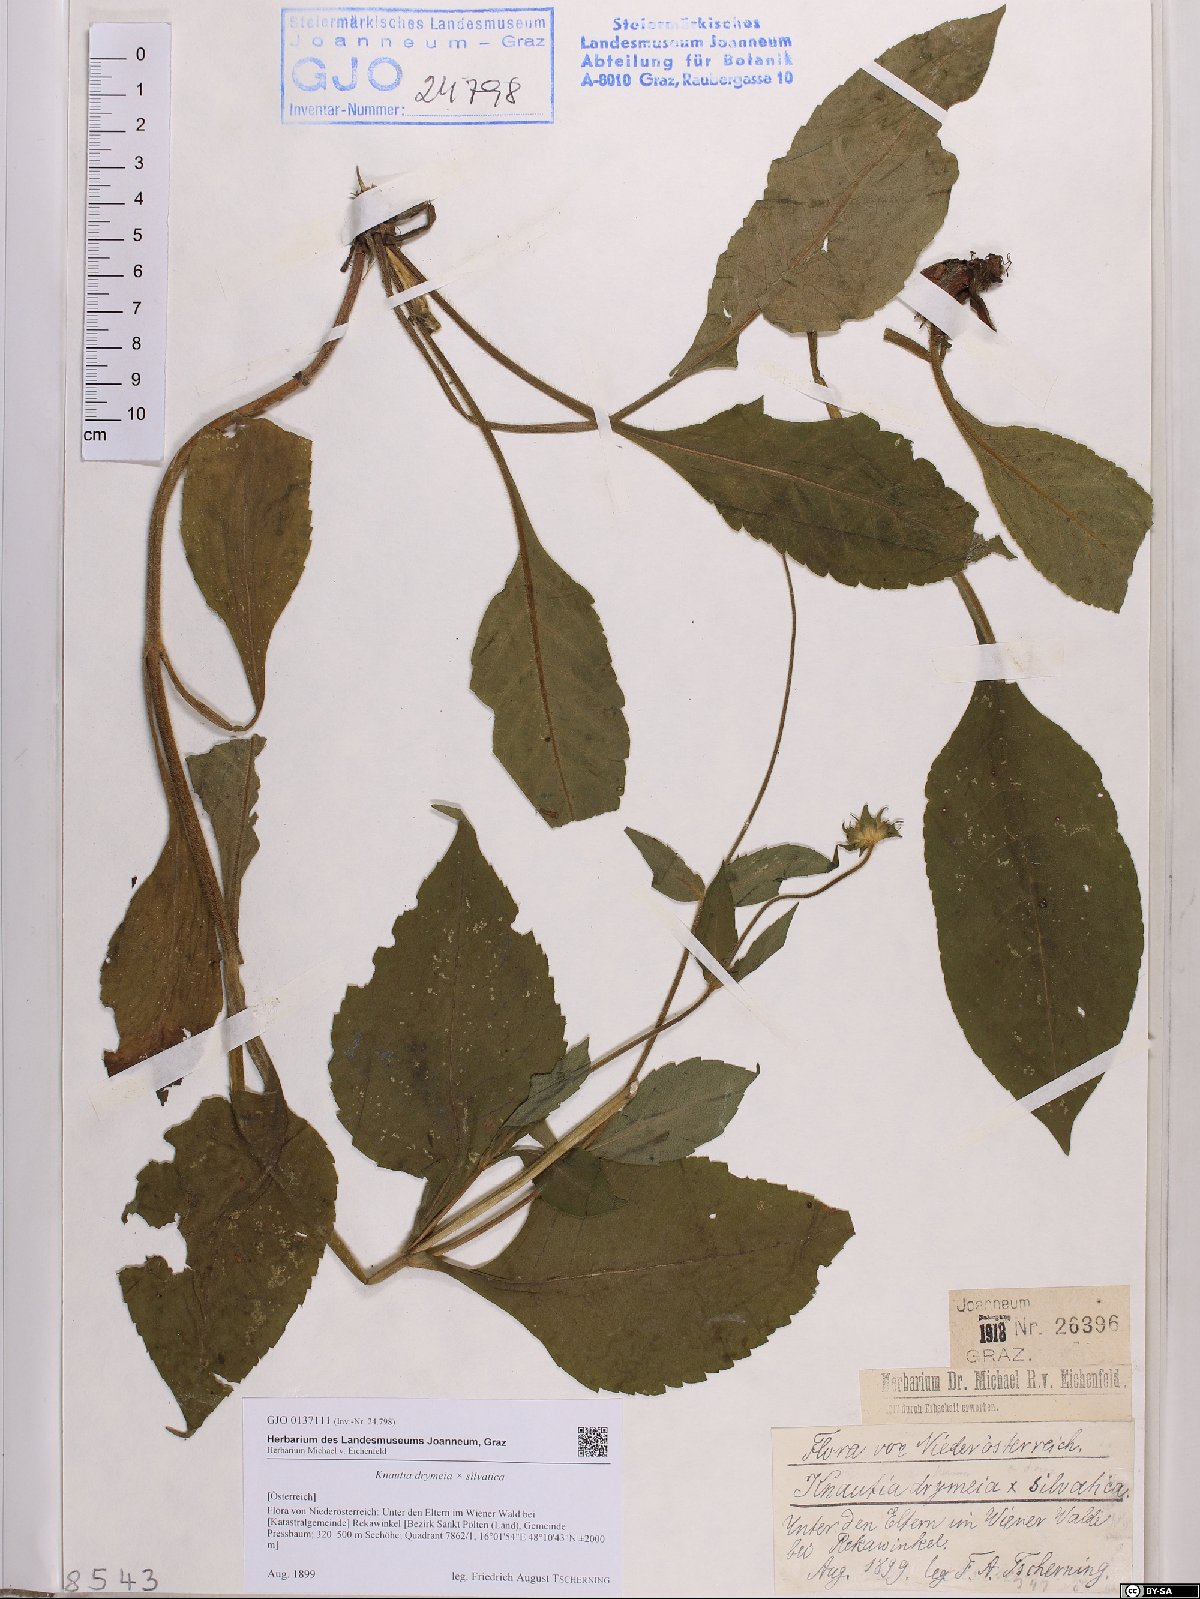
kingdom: Plantae
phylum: Tracheophyta
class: Magnoliopsida
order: Dipsacales
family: Dipsacaceae
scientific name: Dipsacaceae
